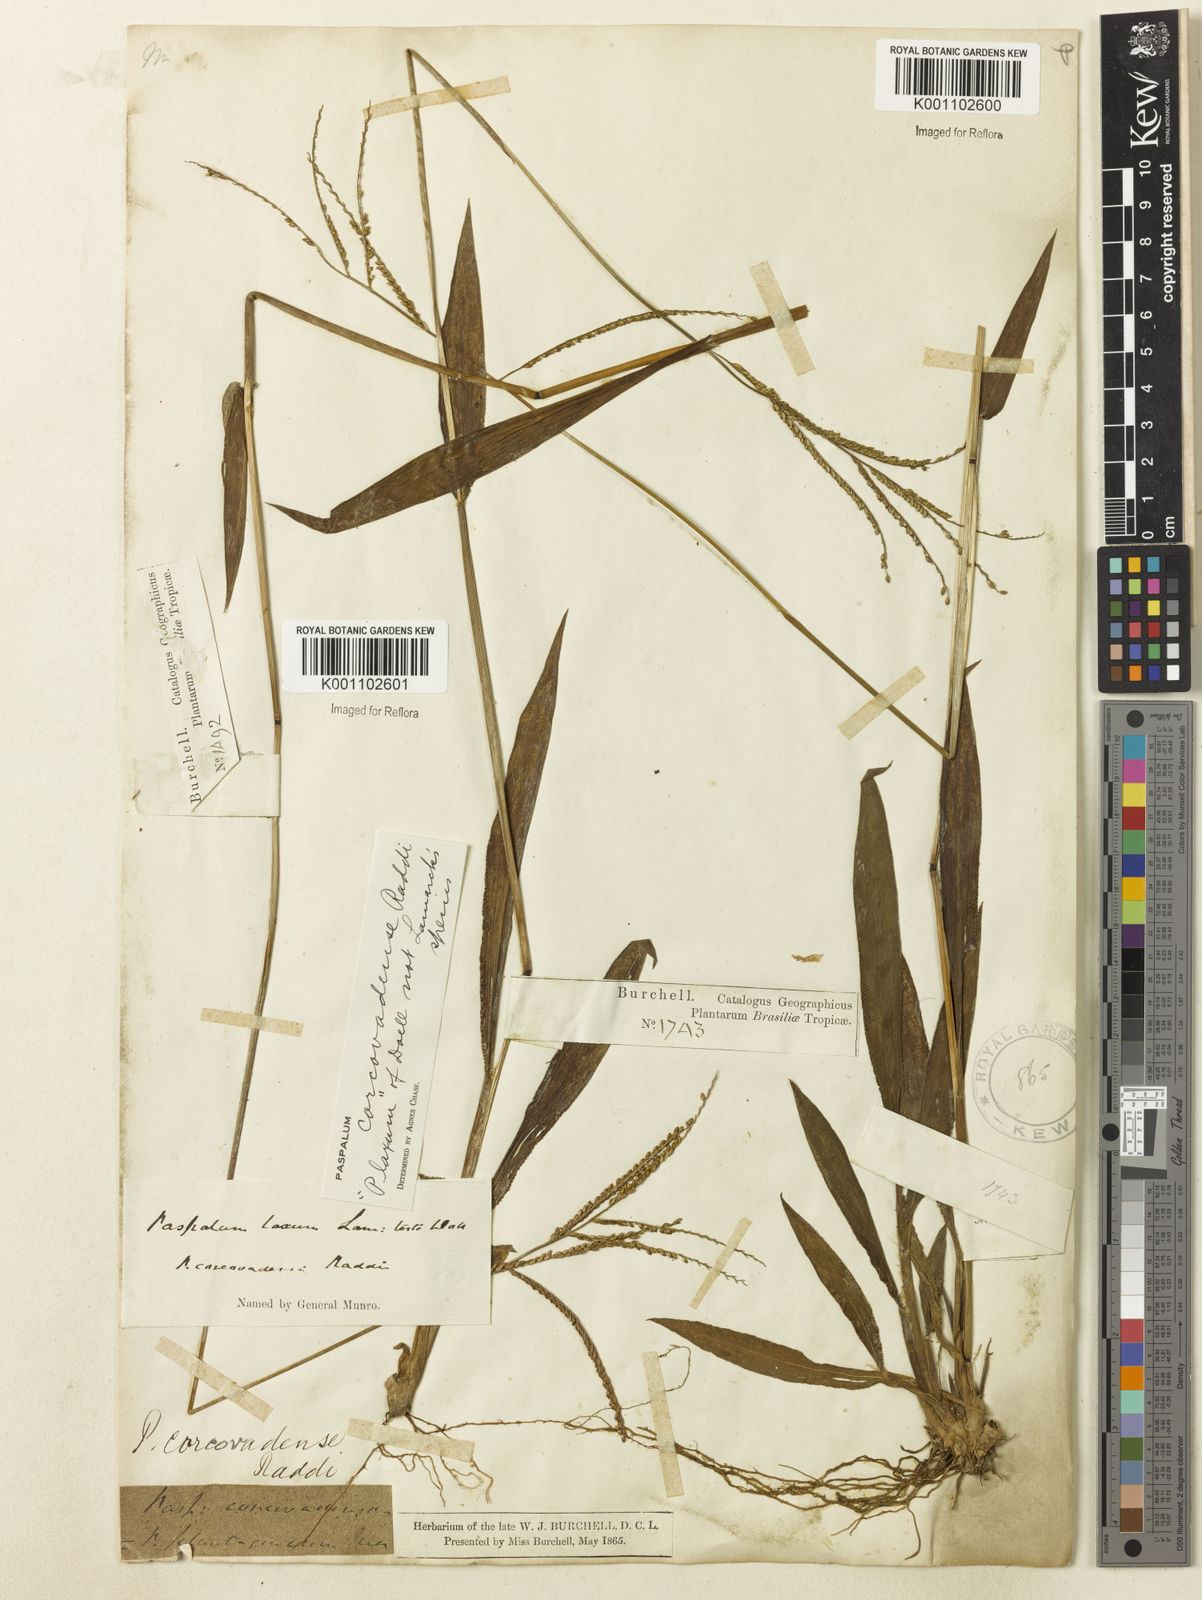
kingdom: Plantae
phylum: Tracheophyta
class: Liliopsida
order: Poales
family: Poaceae
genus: Paspalum
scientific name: Paspalum corcovadense
